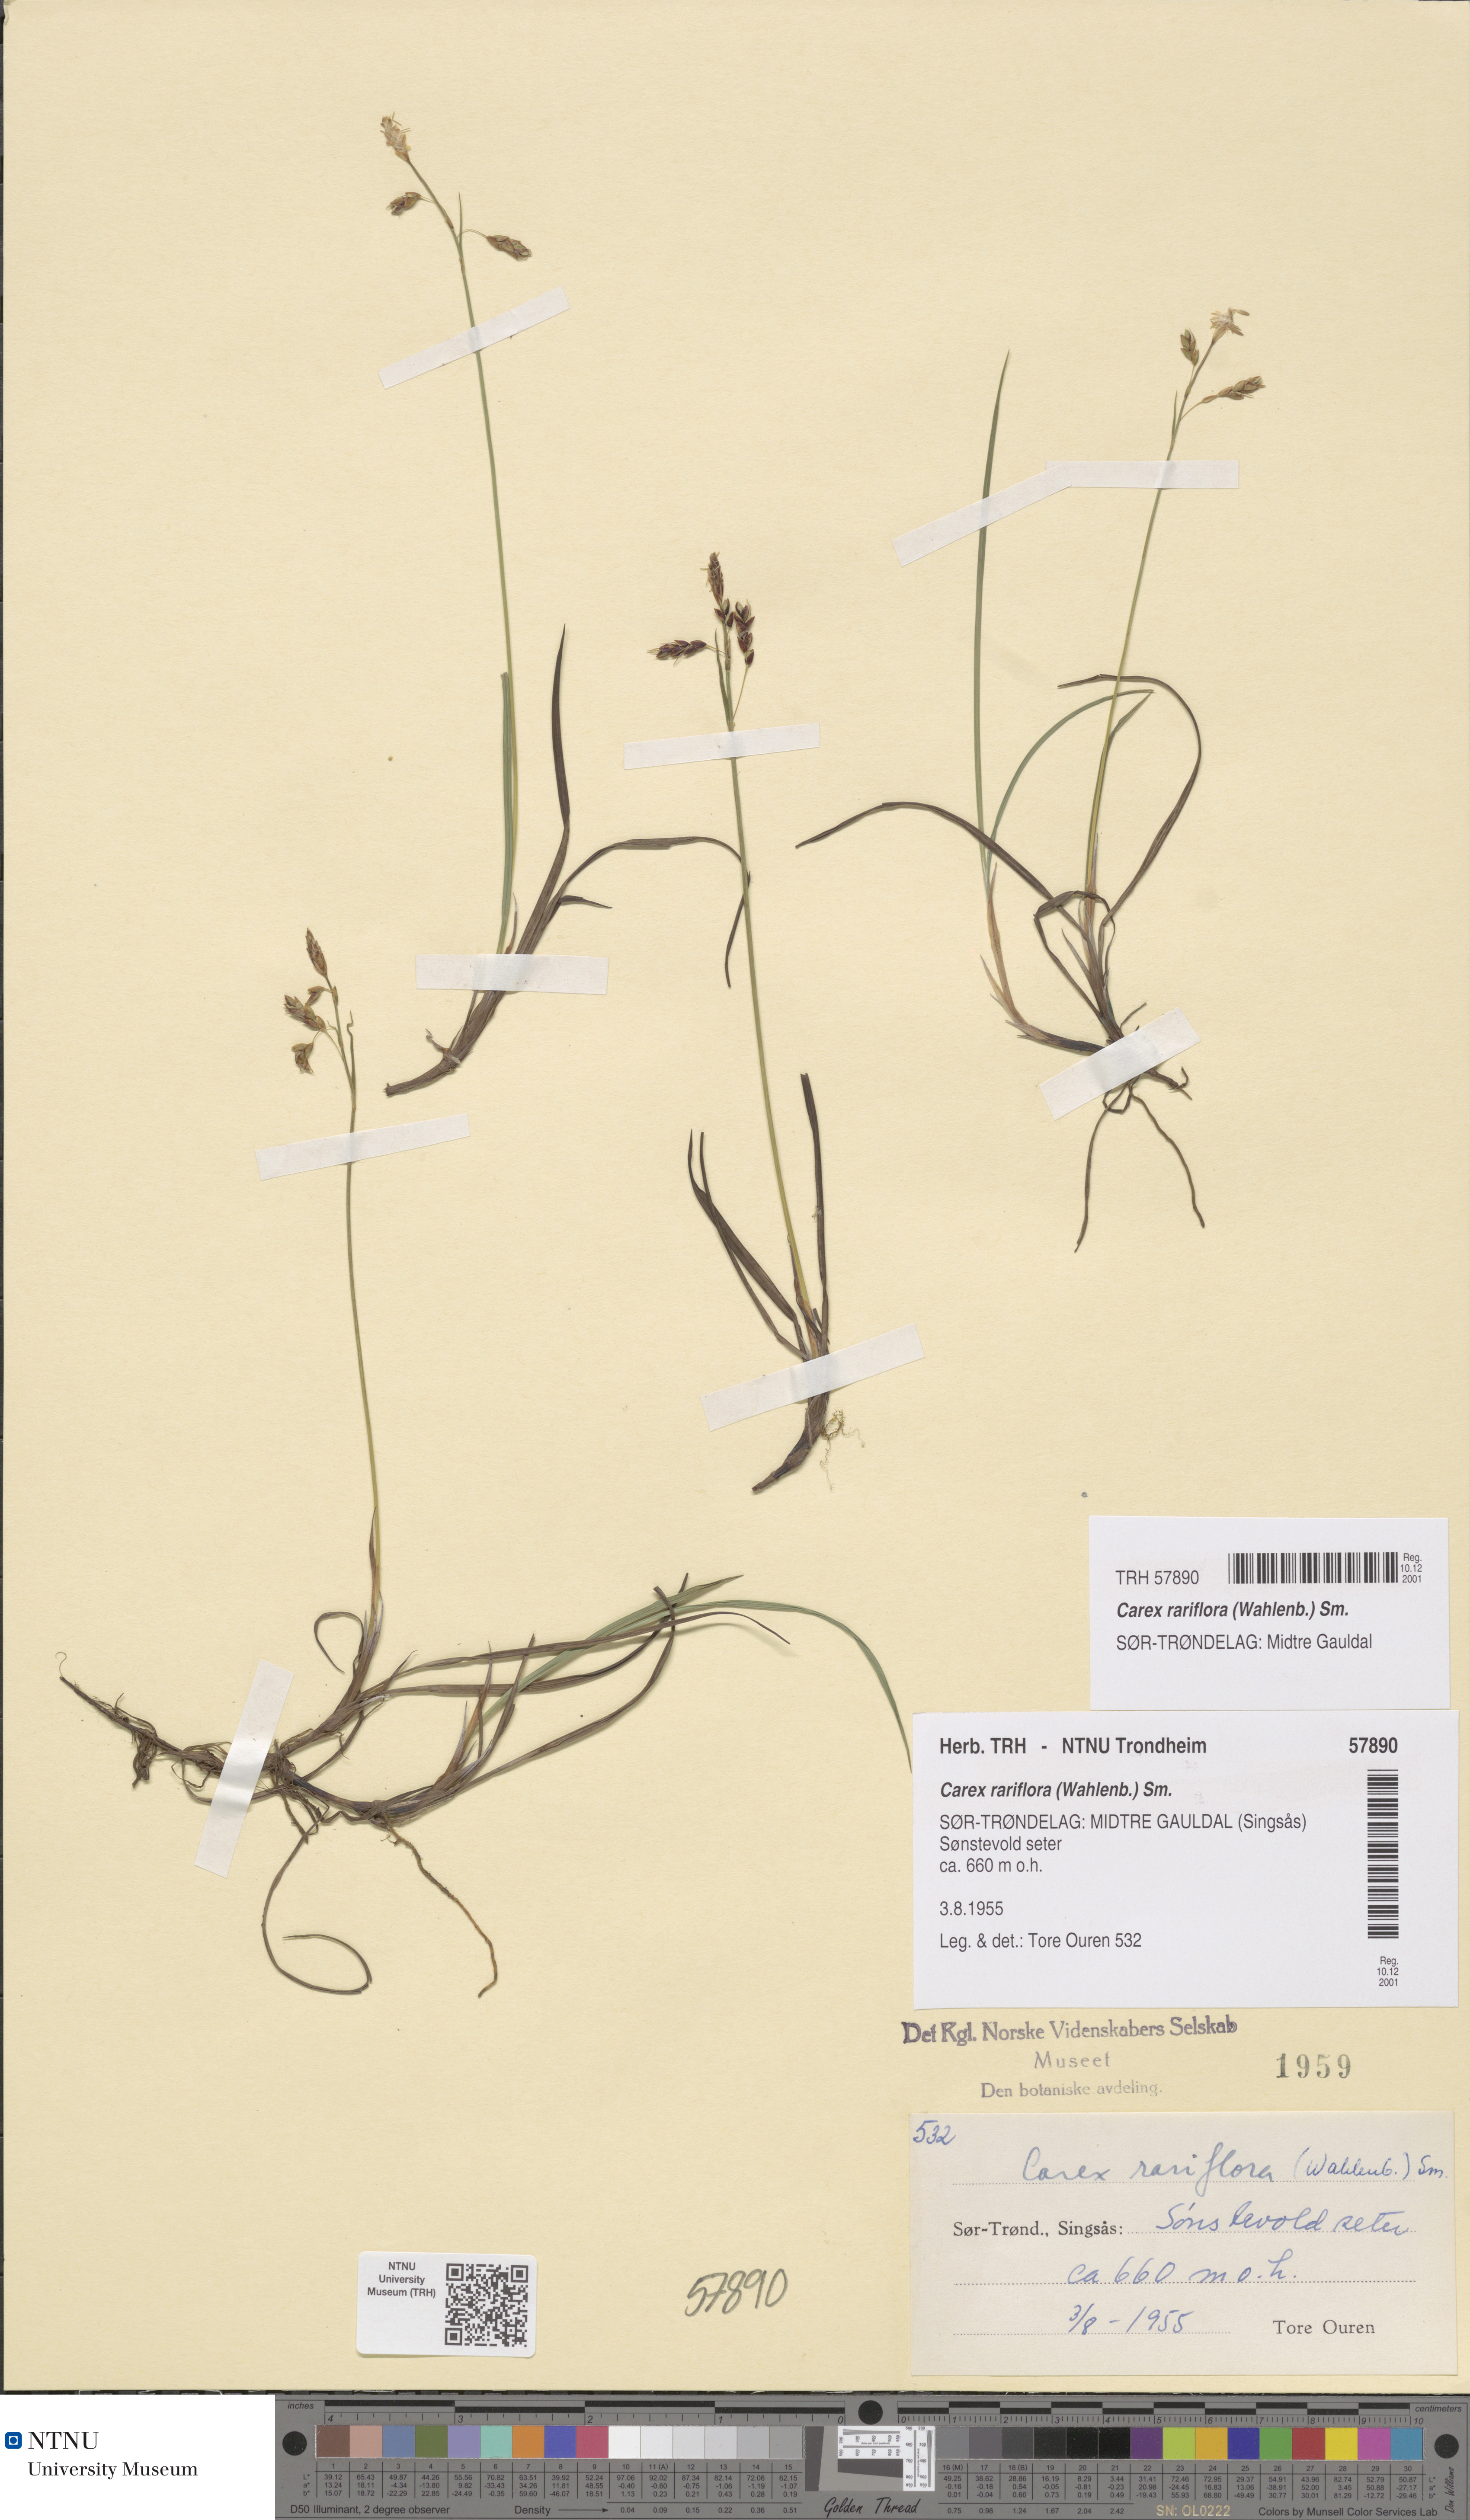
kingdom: Plantae
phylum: Tracheophyta
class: Liliopsida
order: Poales
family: Cyperaceae
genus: Carex
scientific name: Carex rariflora
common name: Loose-flowered alpine sedge
